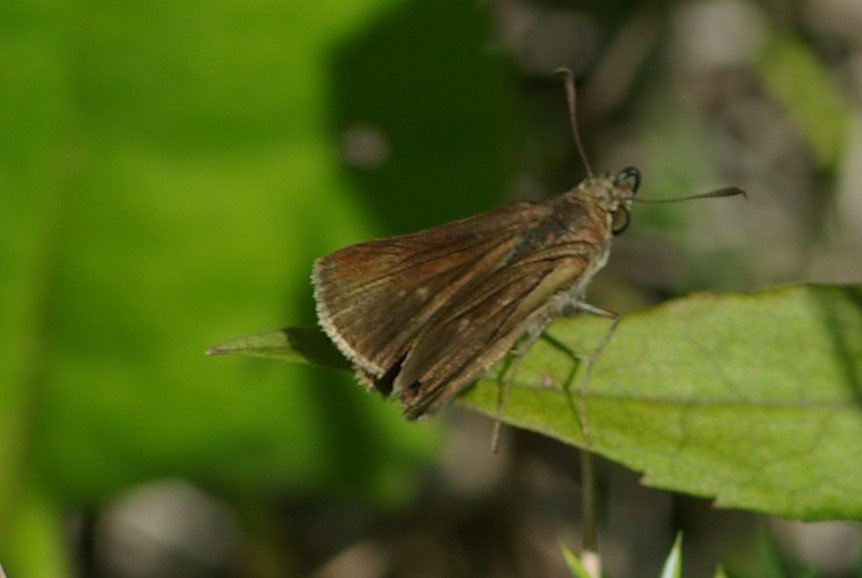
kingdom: Animalia
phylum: Arthropoda
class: Insecta
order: Lepidoptera
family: Hesperiidae
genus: Euphyes
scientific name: Euphyes vestris
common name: Dun Skipper
